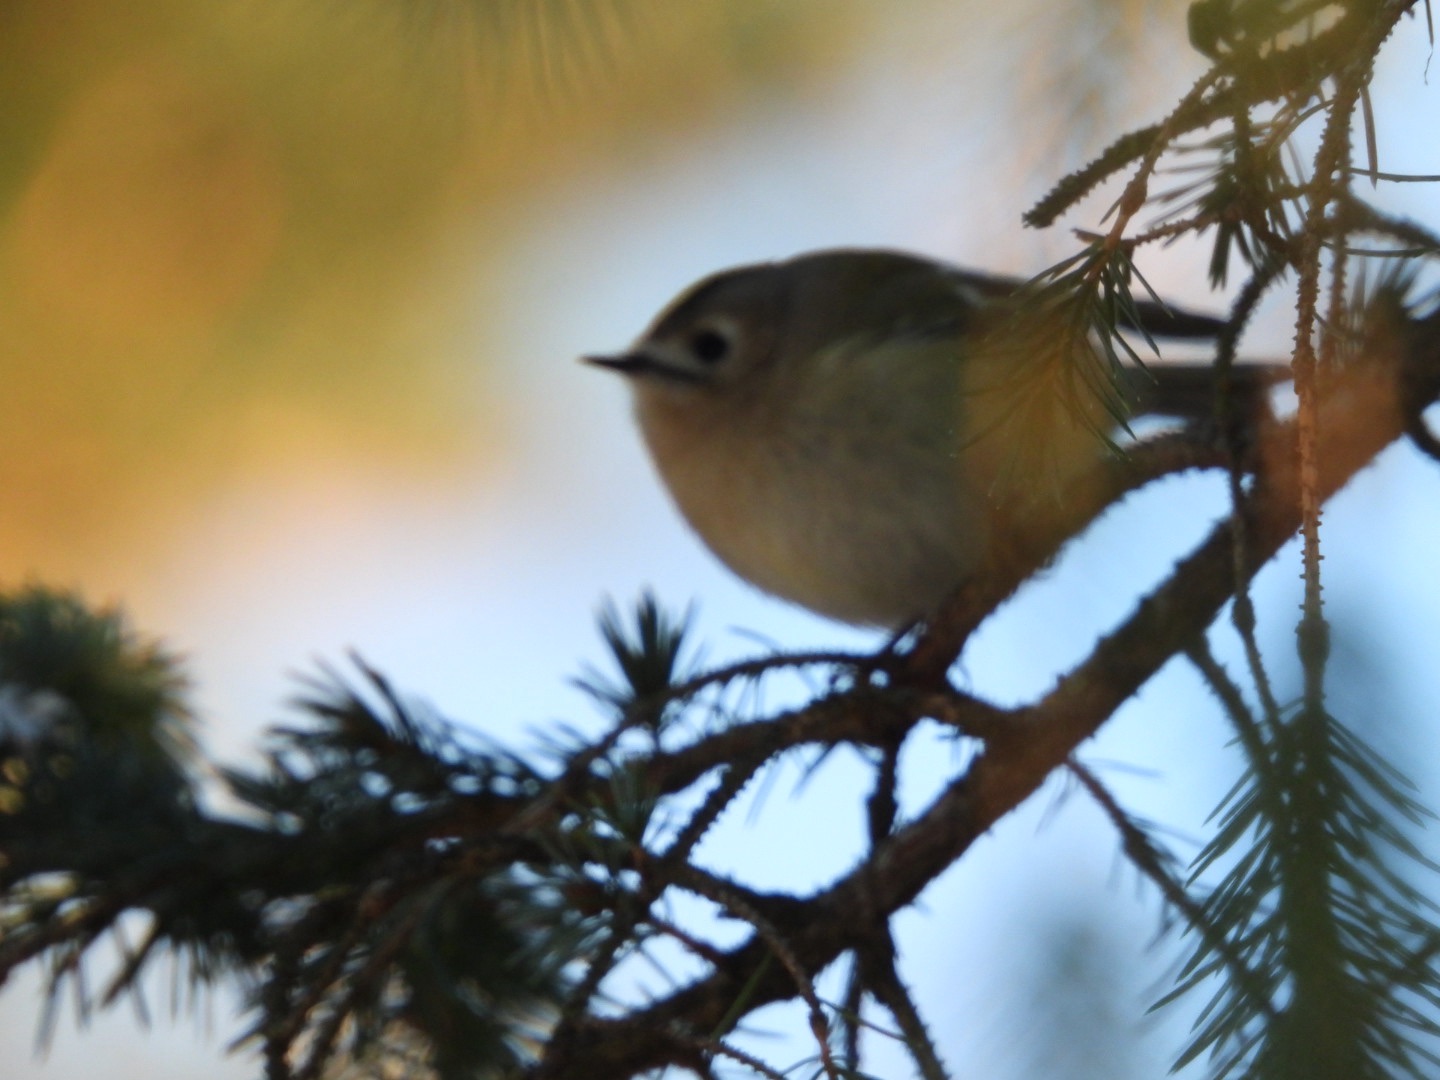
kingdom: Animalia
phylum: Chordata
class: Aves
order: Passeriformes
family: Regulidae
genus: Regulus
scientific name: Regulus regulus
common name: Fuglekonge
